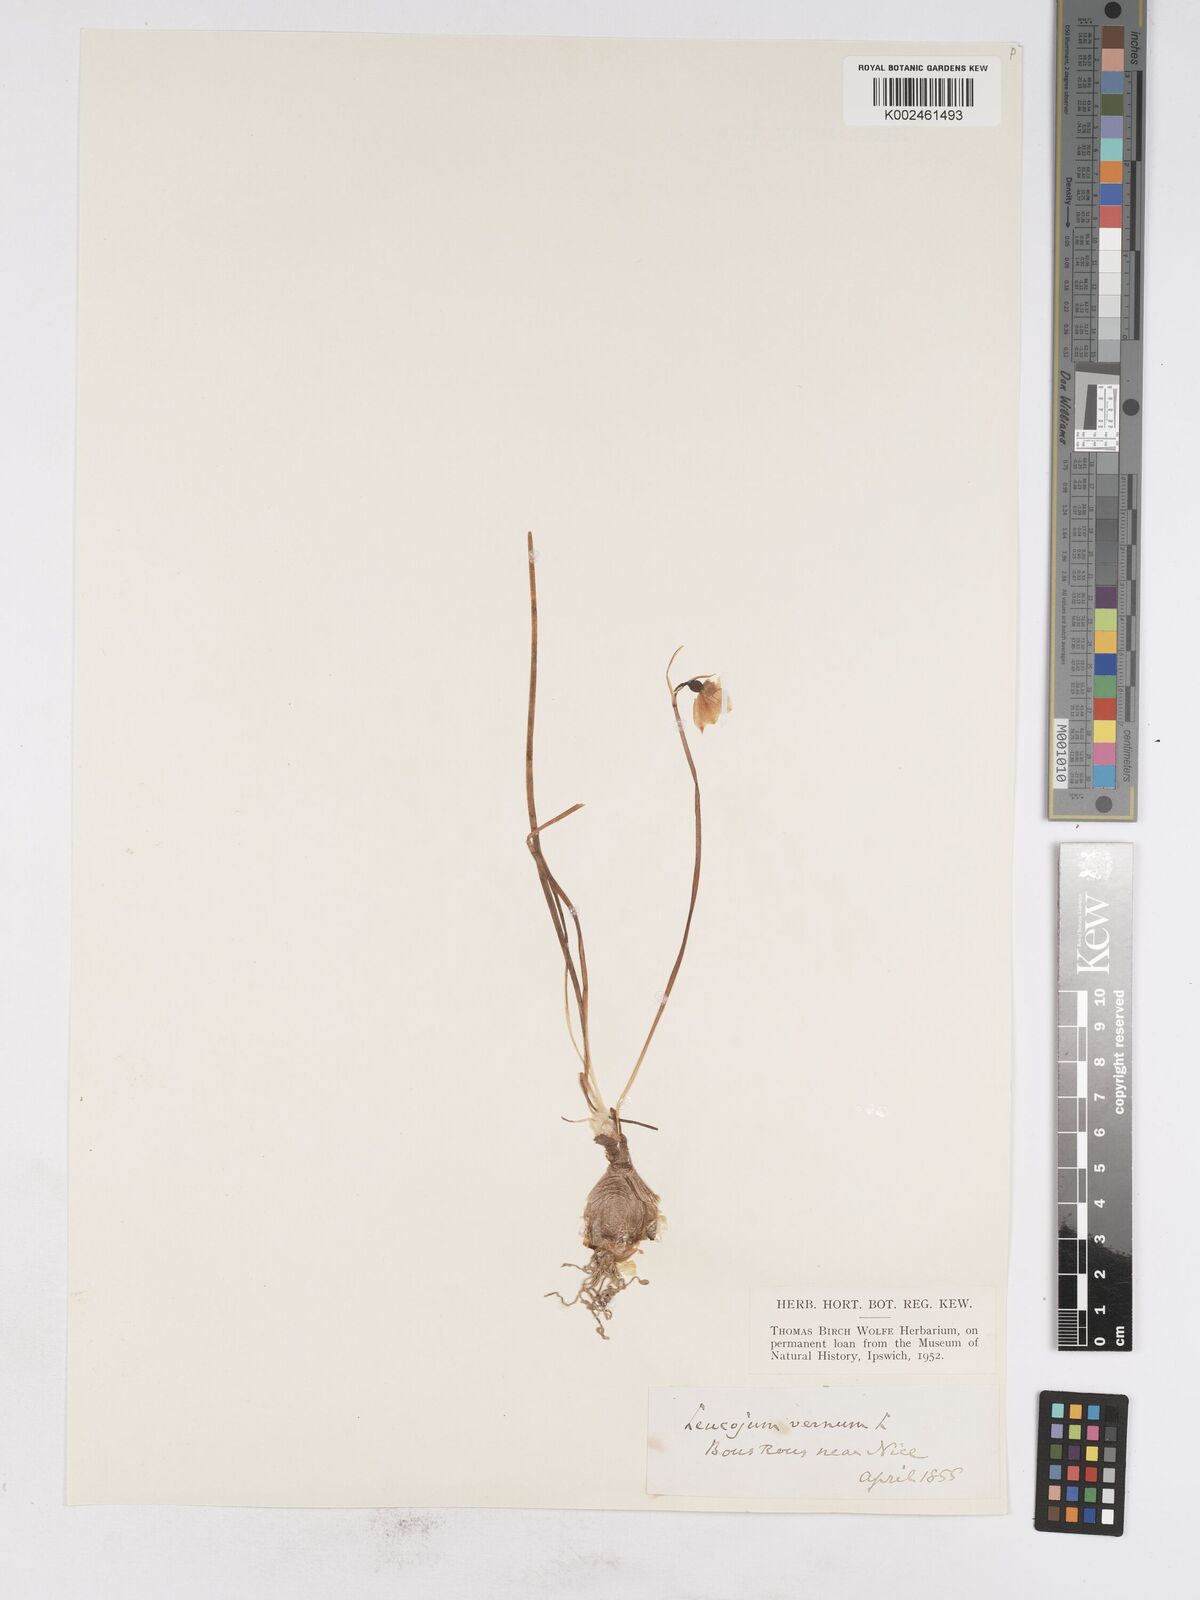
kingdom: Plantae
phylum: Tracheophyta
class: Liliopsida
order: Asparagales
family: Amaryllidaceae
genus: Leucojum
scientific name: Leucojum vernum
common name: Spring snowflake
